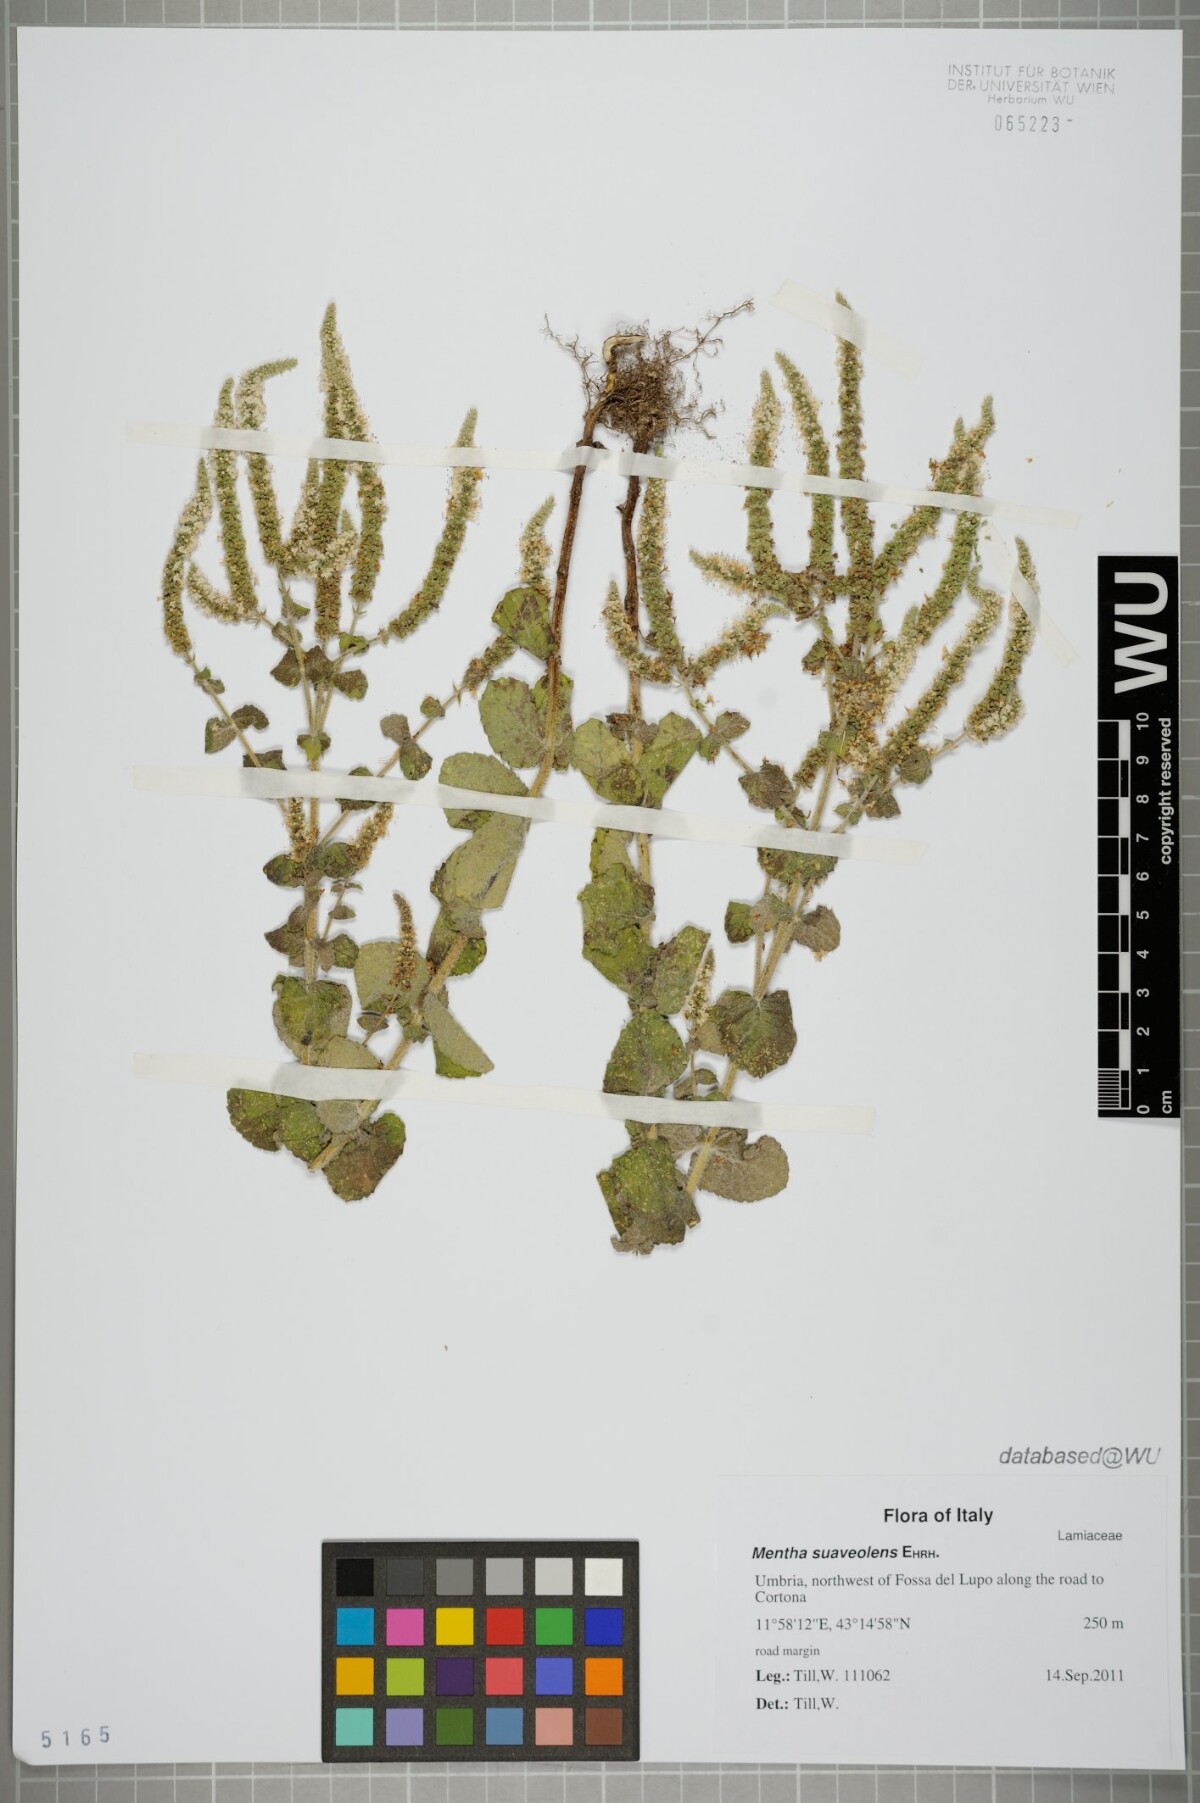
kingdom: Plantae
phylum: Tracheophyta
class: Magnoliopsida
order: Lamiales
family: Lamiaceae
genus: Mentha
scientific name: Mentha suaveolens
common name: Apple mint
